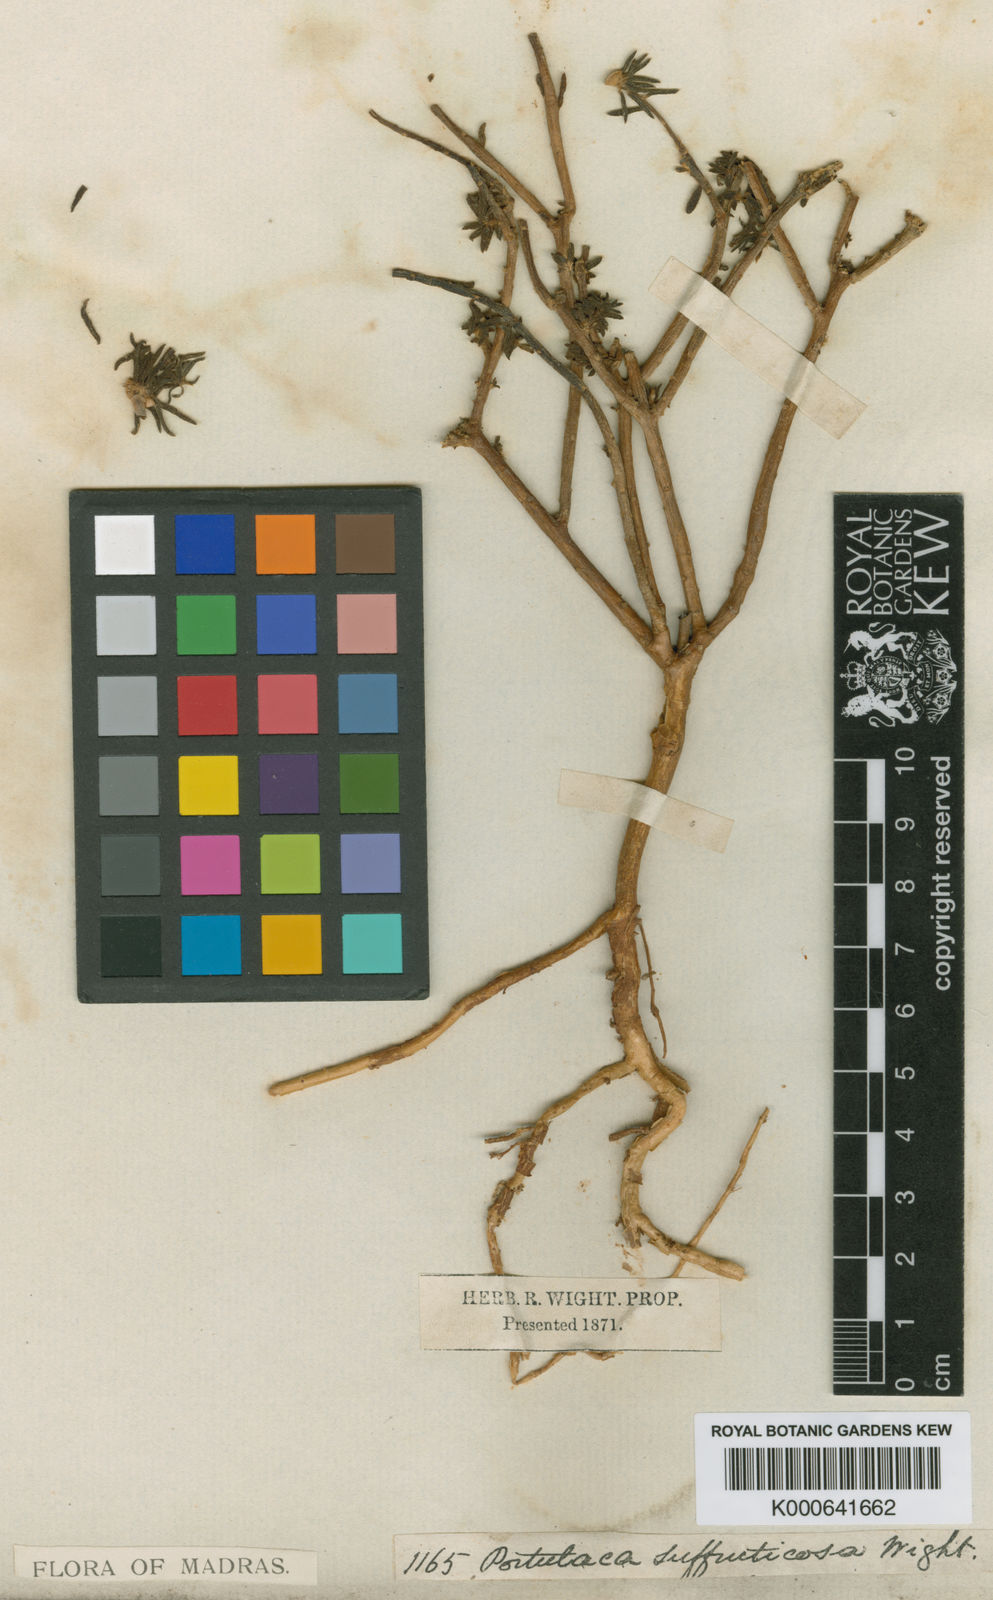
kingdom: Plantae
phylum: Tracheophyta
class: Magnoliopsida
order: Caryophyllales
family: Portulacaceae
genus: Portulaca
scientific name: Portulaca oleracea
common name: Common purslane
